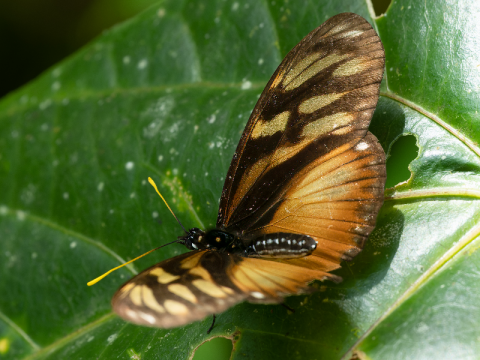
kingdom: Animalia
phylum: Arthropoda
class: Insecta
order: Lepidoptera
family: Nymphalidae
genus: Eueides
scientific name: Eueides procula
